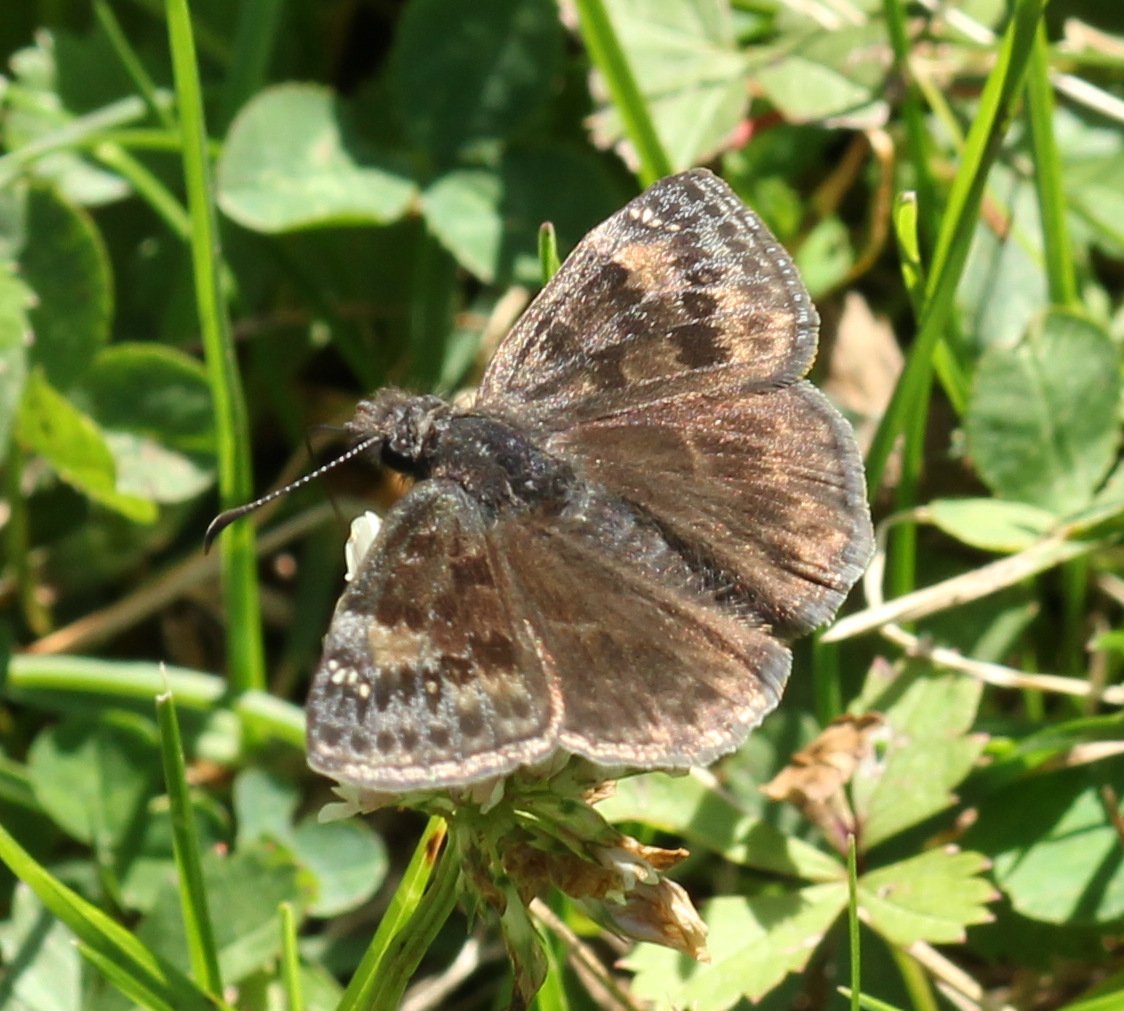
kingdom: Animalia
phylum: Arthropoda
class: Insecta
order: Lepidoptera
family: Hesperiidae
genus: Gesta
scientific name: Gesta
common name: Wild Indigo Duskywing
